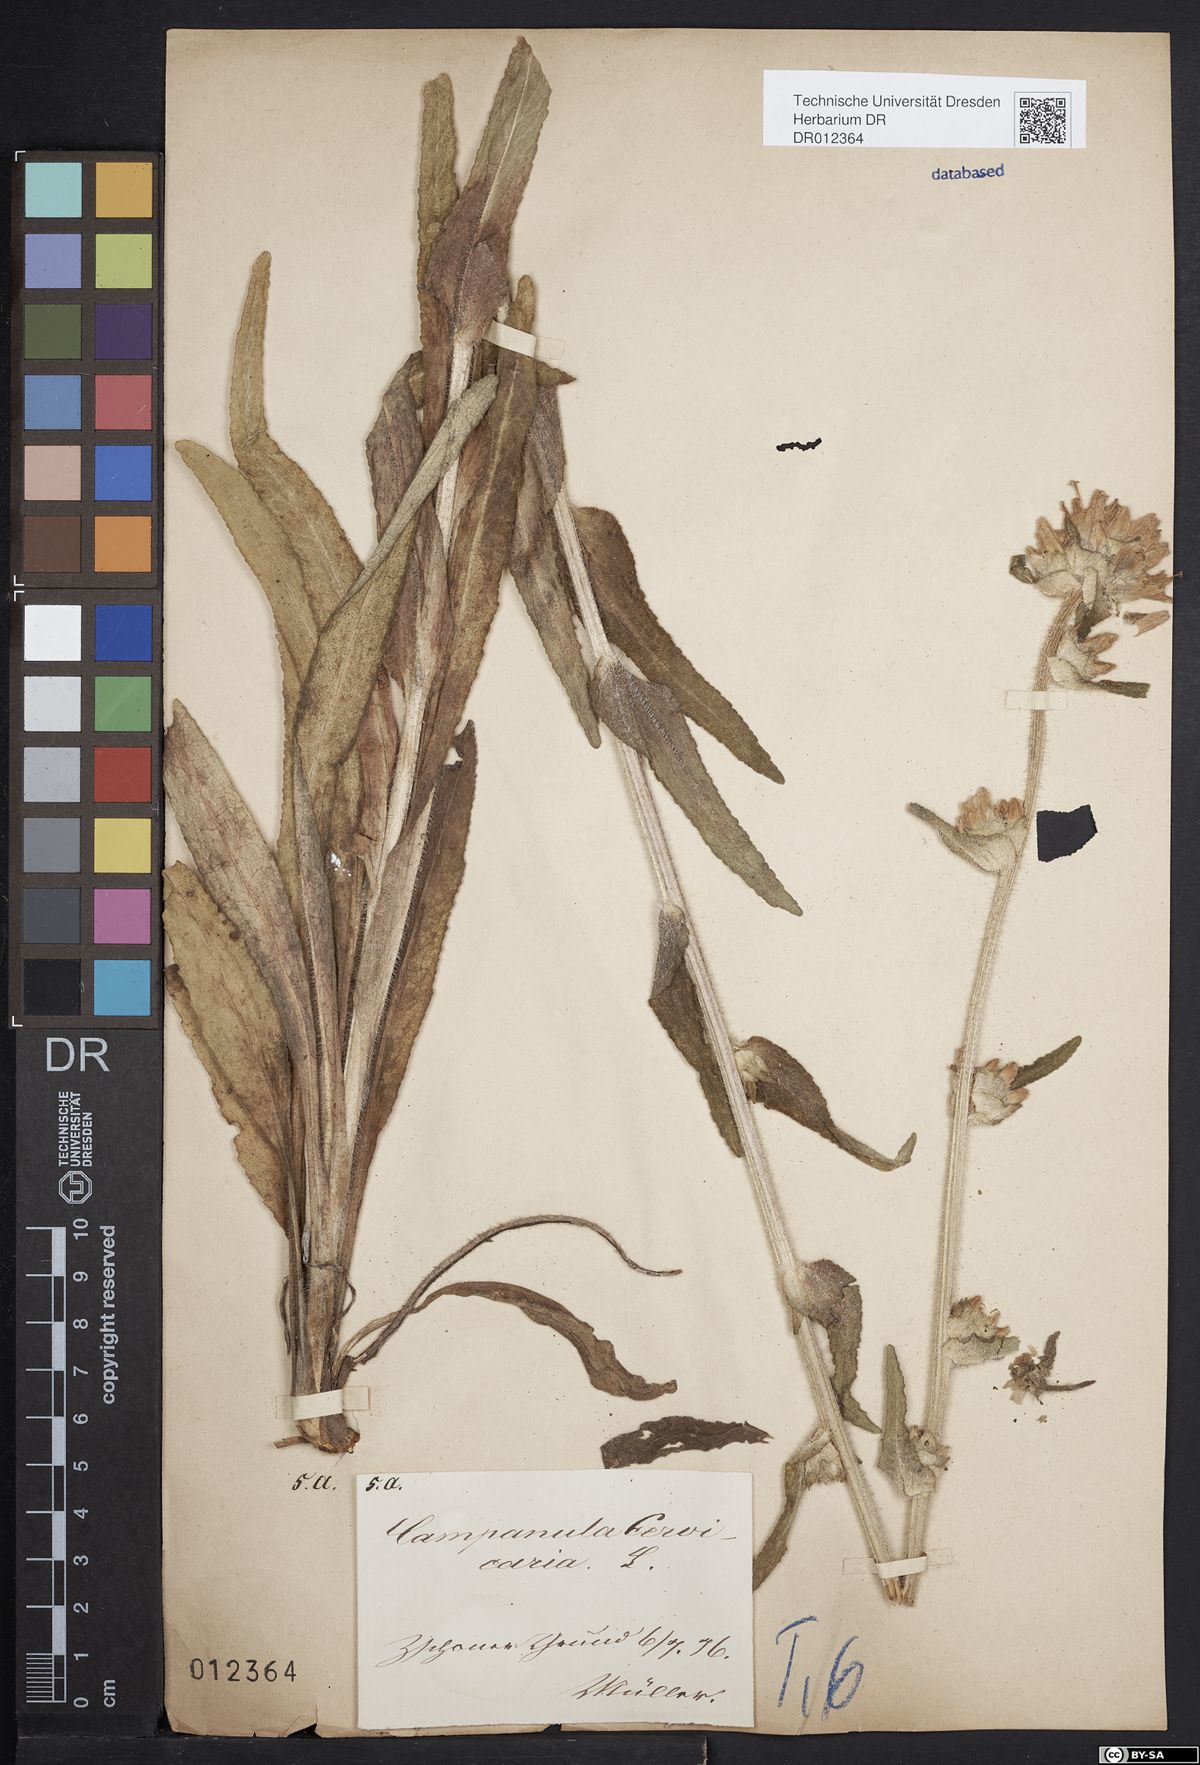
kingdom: Plantae
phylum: Tracheophyta
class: Magnoliopsida
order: Asterales
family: Campanulaceae
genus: Campanula
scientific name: Campanula cervicaria
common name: Bristly bellflower
